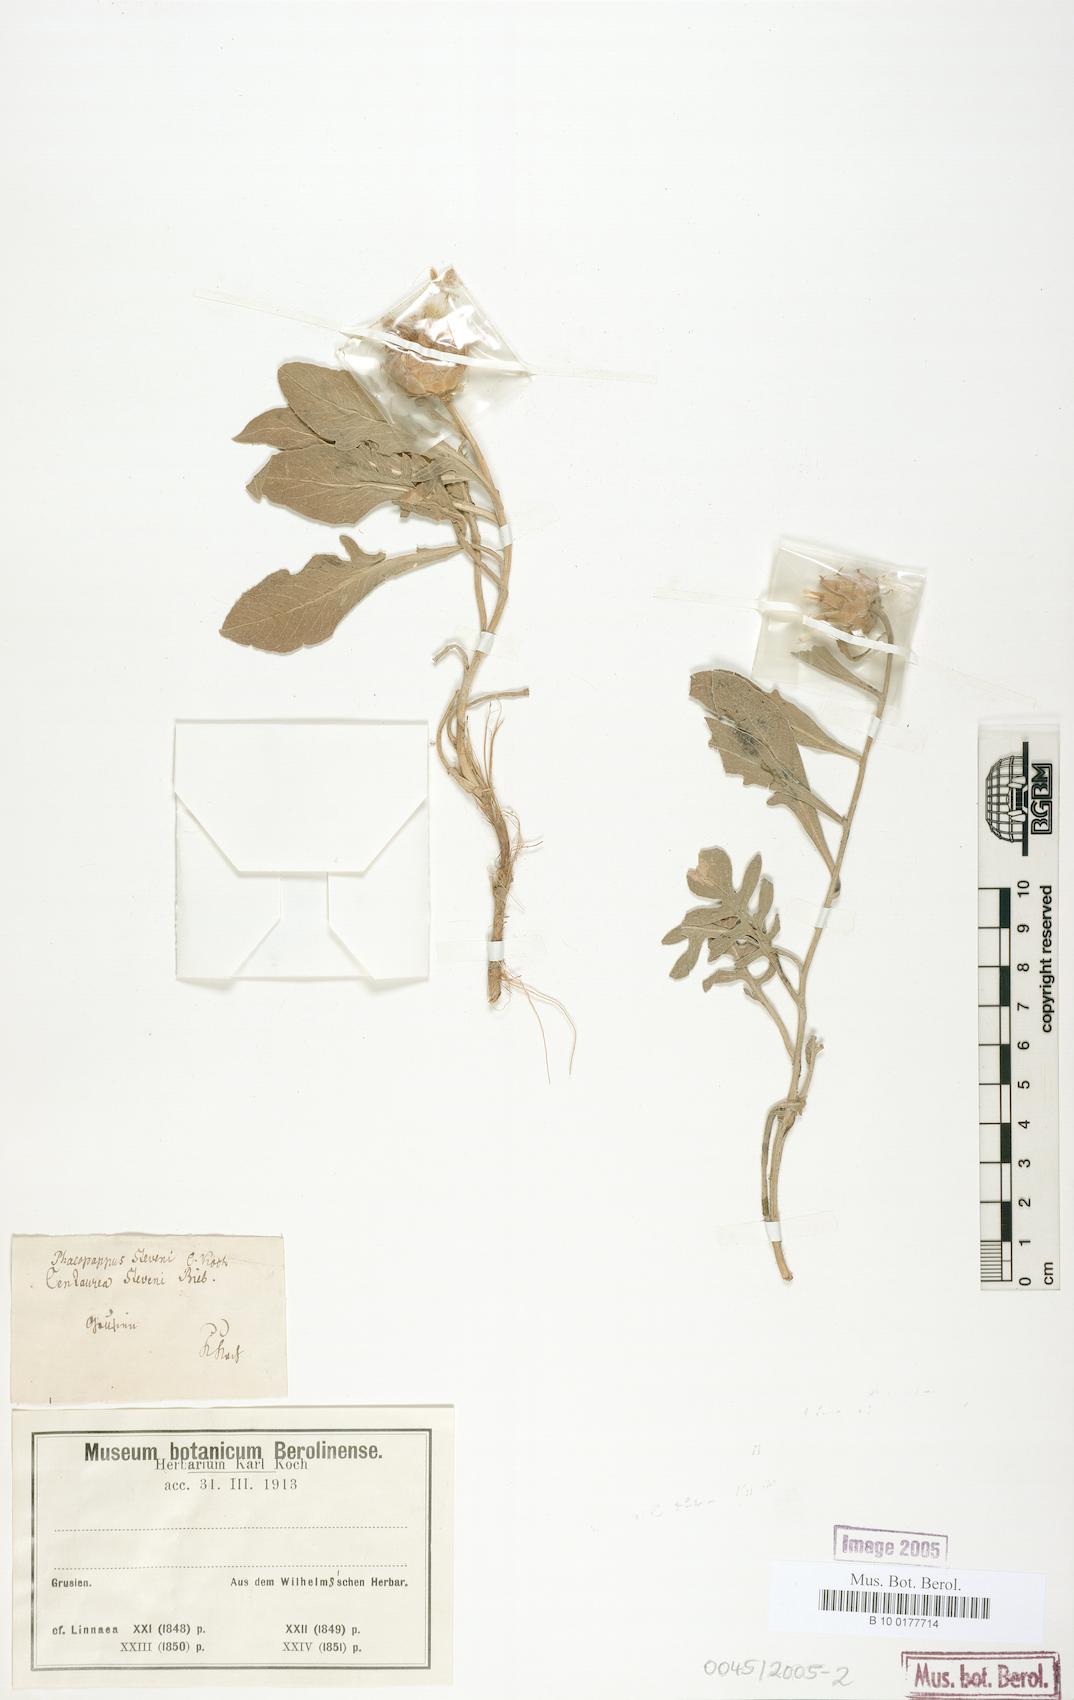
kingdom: Plantae
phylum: Tracheophyta
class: Magnoliopsida
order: Asterales
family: Asteraceae
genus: Centaurea
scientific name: Centaurea stevenii
